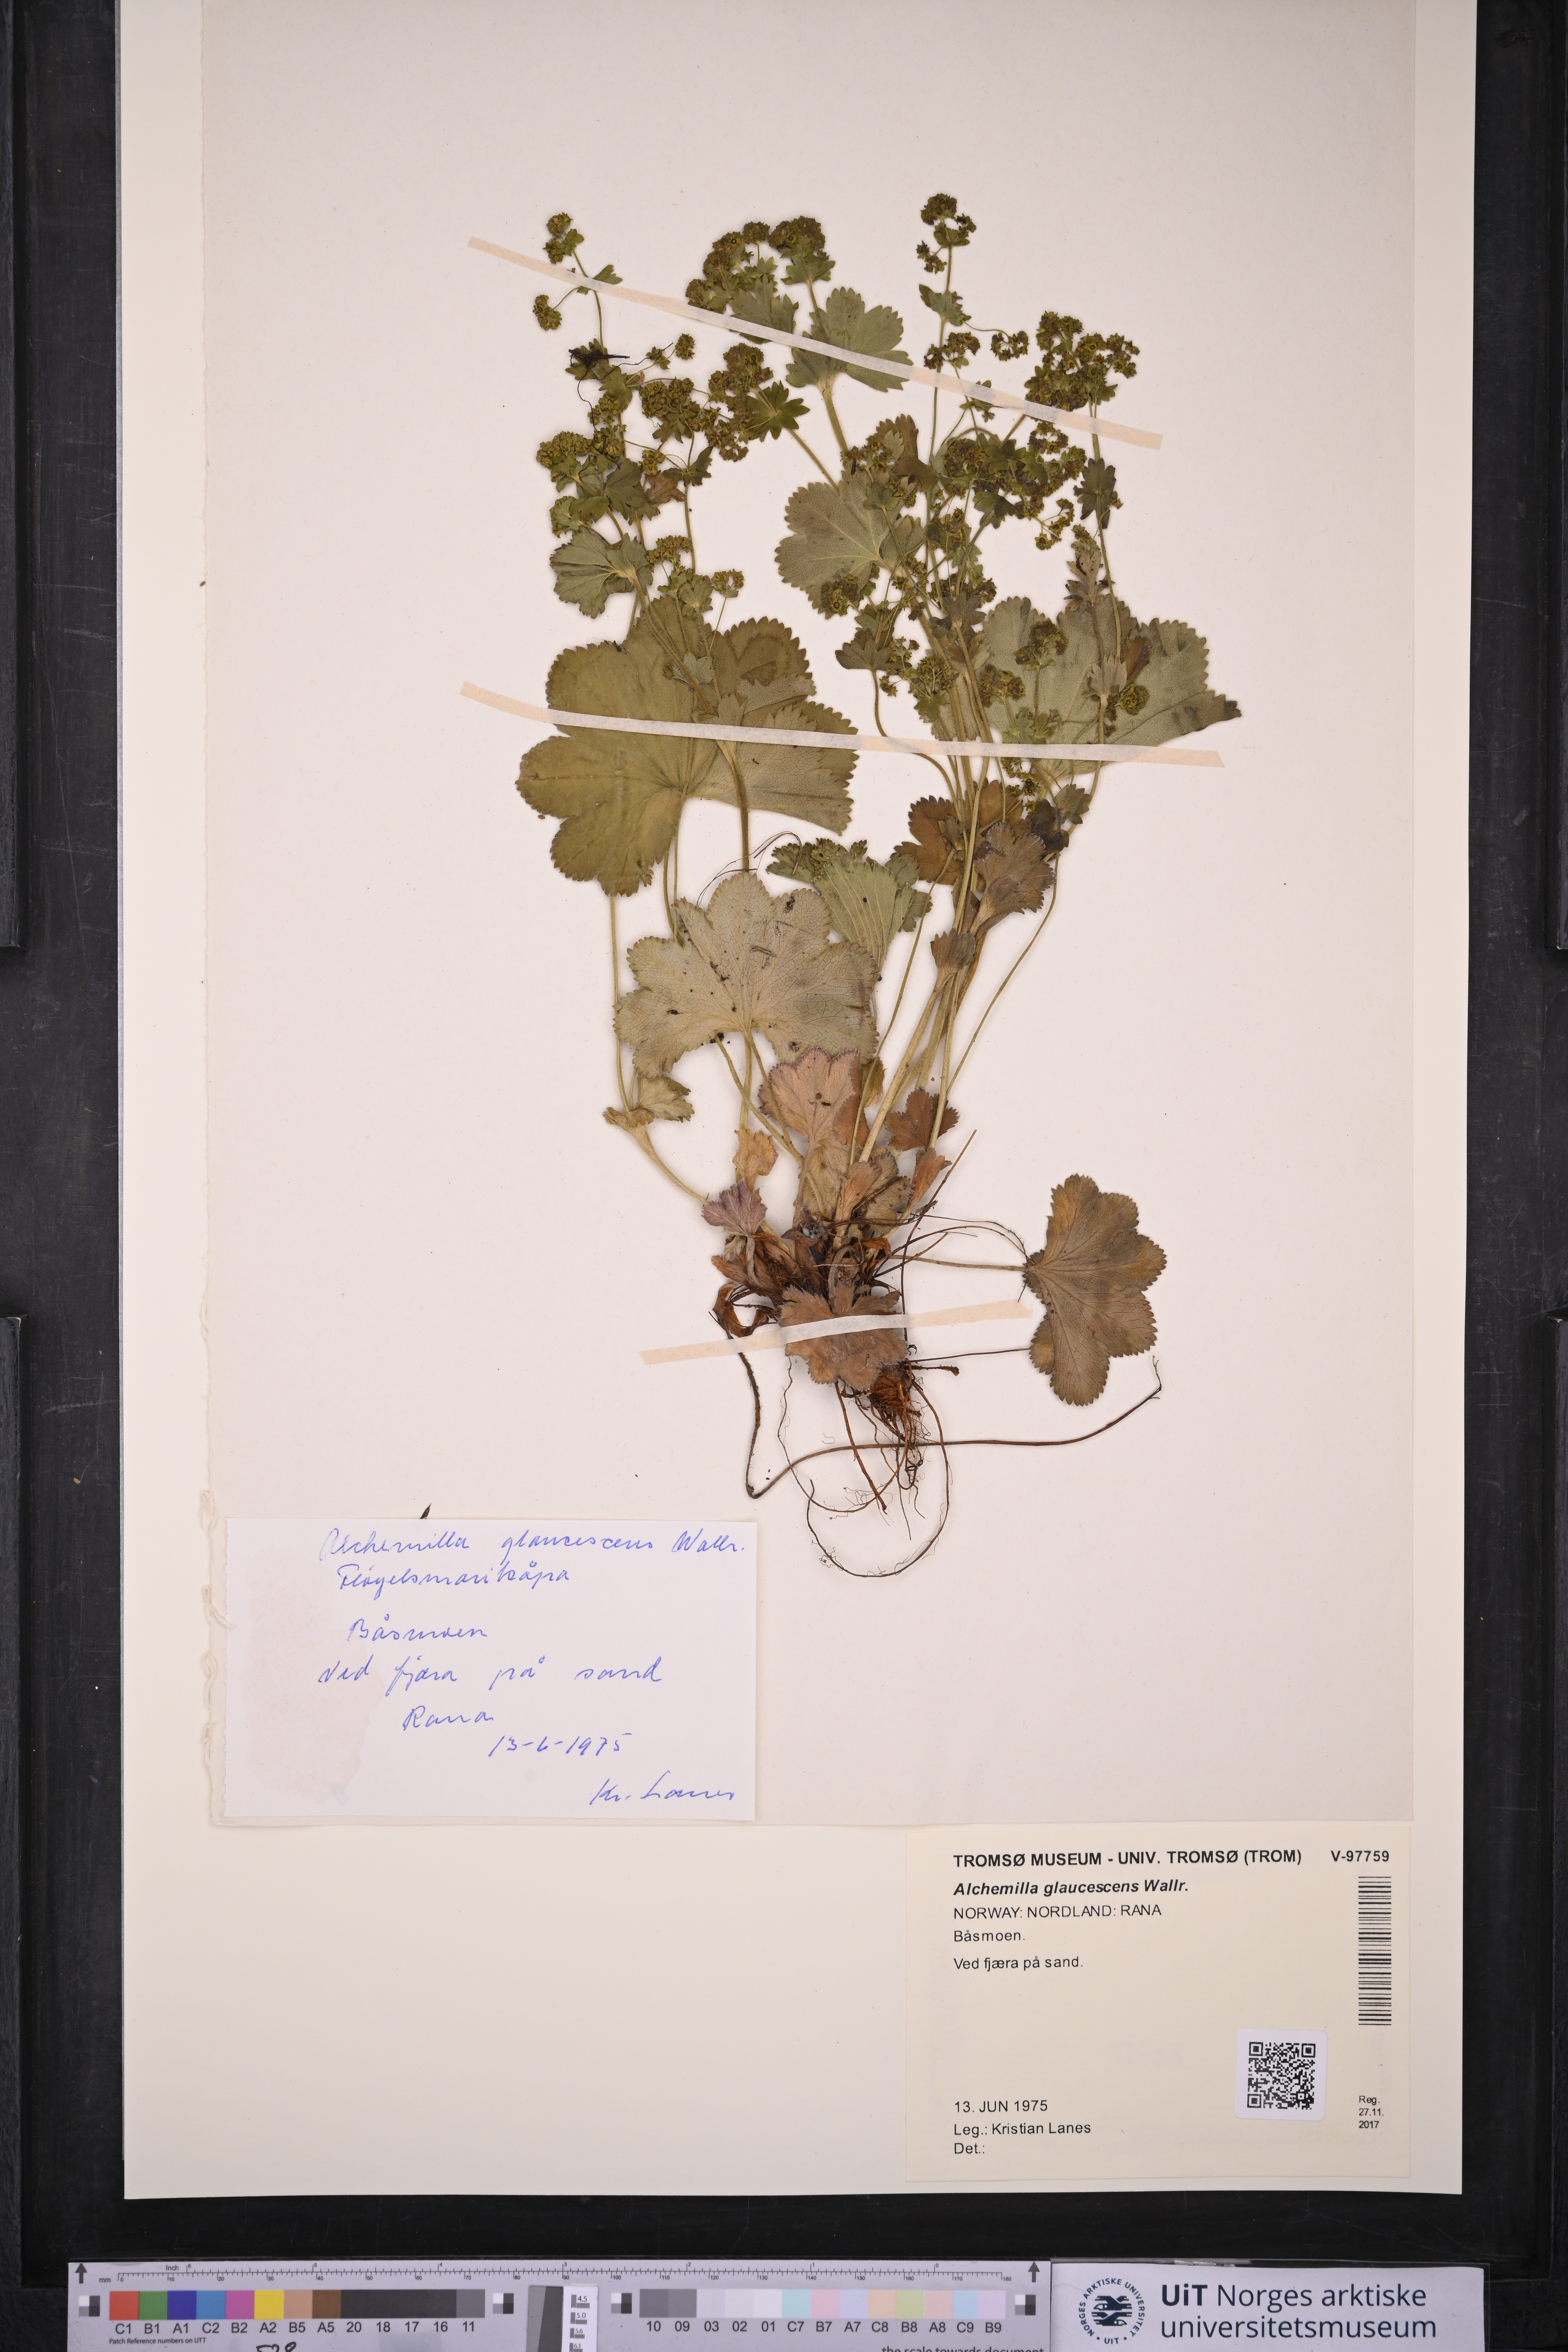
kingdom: Plantae
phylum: Tracheophyta
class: Magnoliopsida
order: Rosales
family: Rosaceae
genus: Alchemilla
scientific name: Alchemilla glaucescens
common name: Silky lady's mantle
